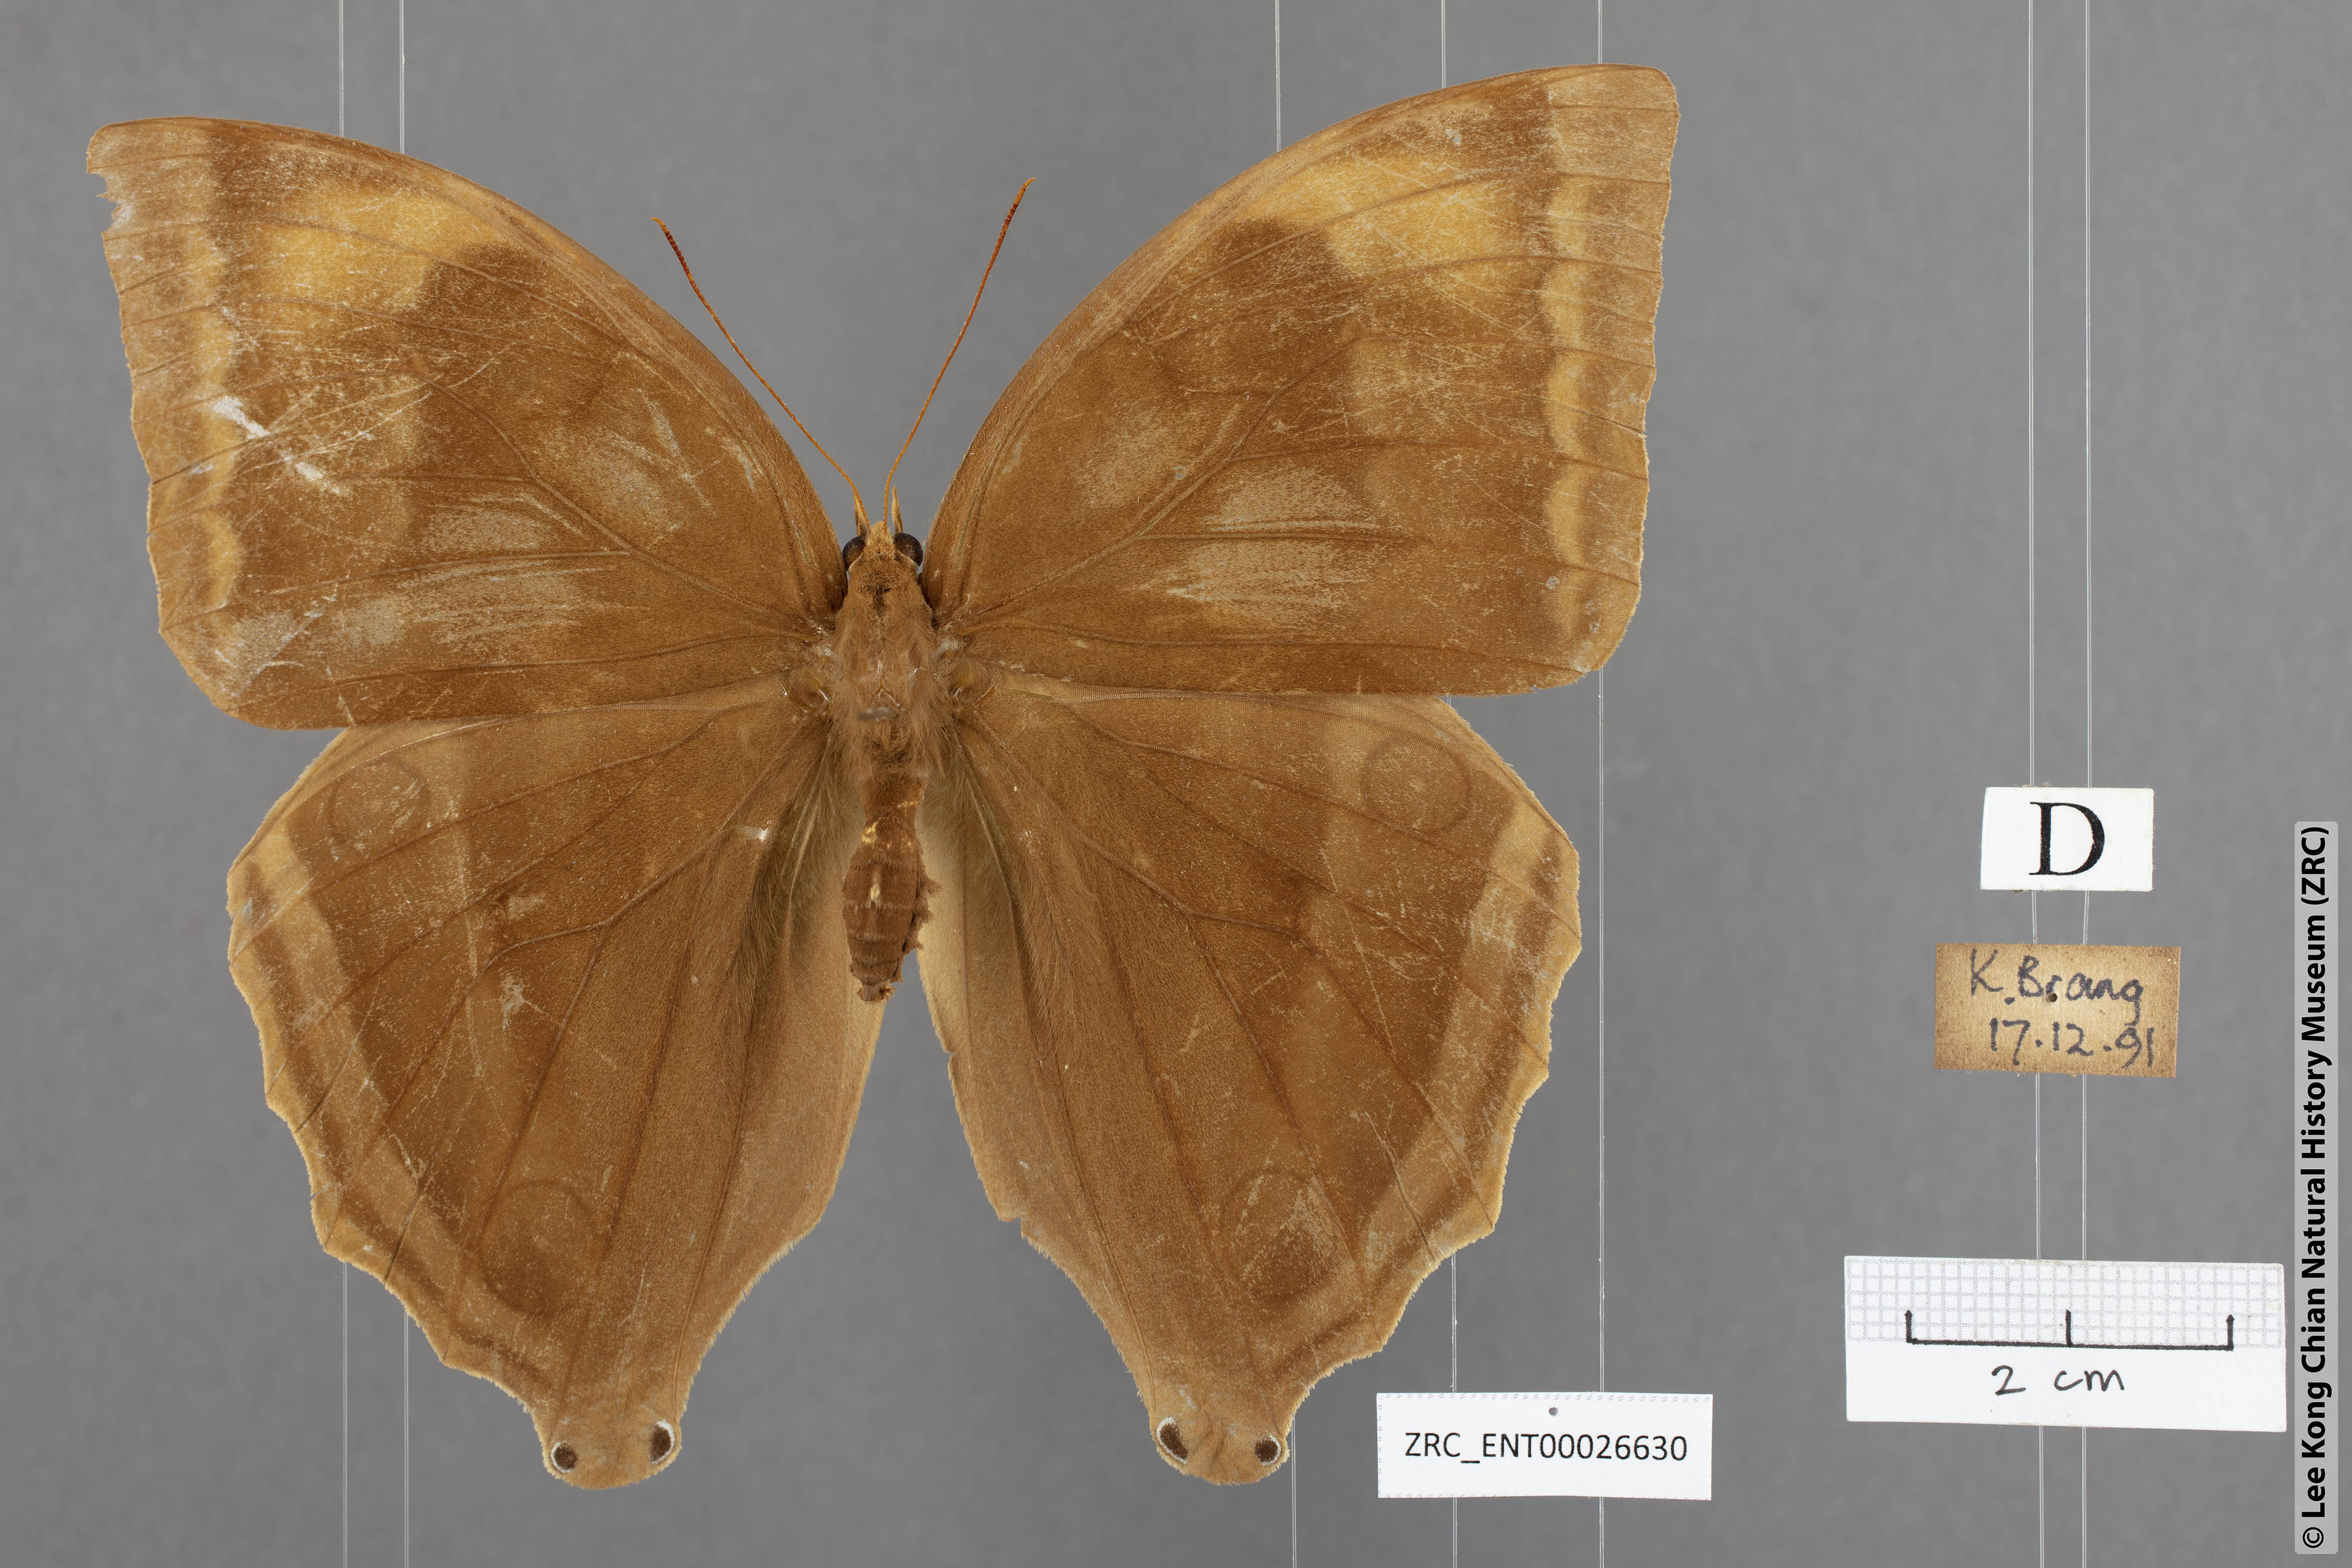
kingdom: Animalia
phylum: Arthropoda
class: Insecta
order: Lepidoptera
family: Nymphalidae
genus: Amathusia
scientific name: Amathusia phidippus
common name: Palm king
